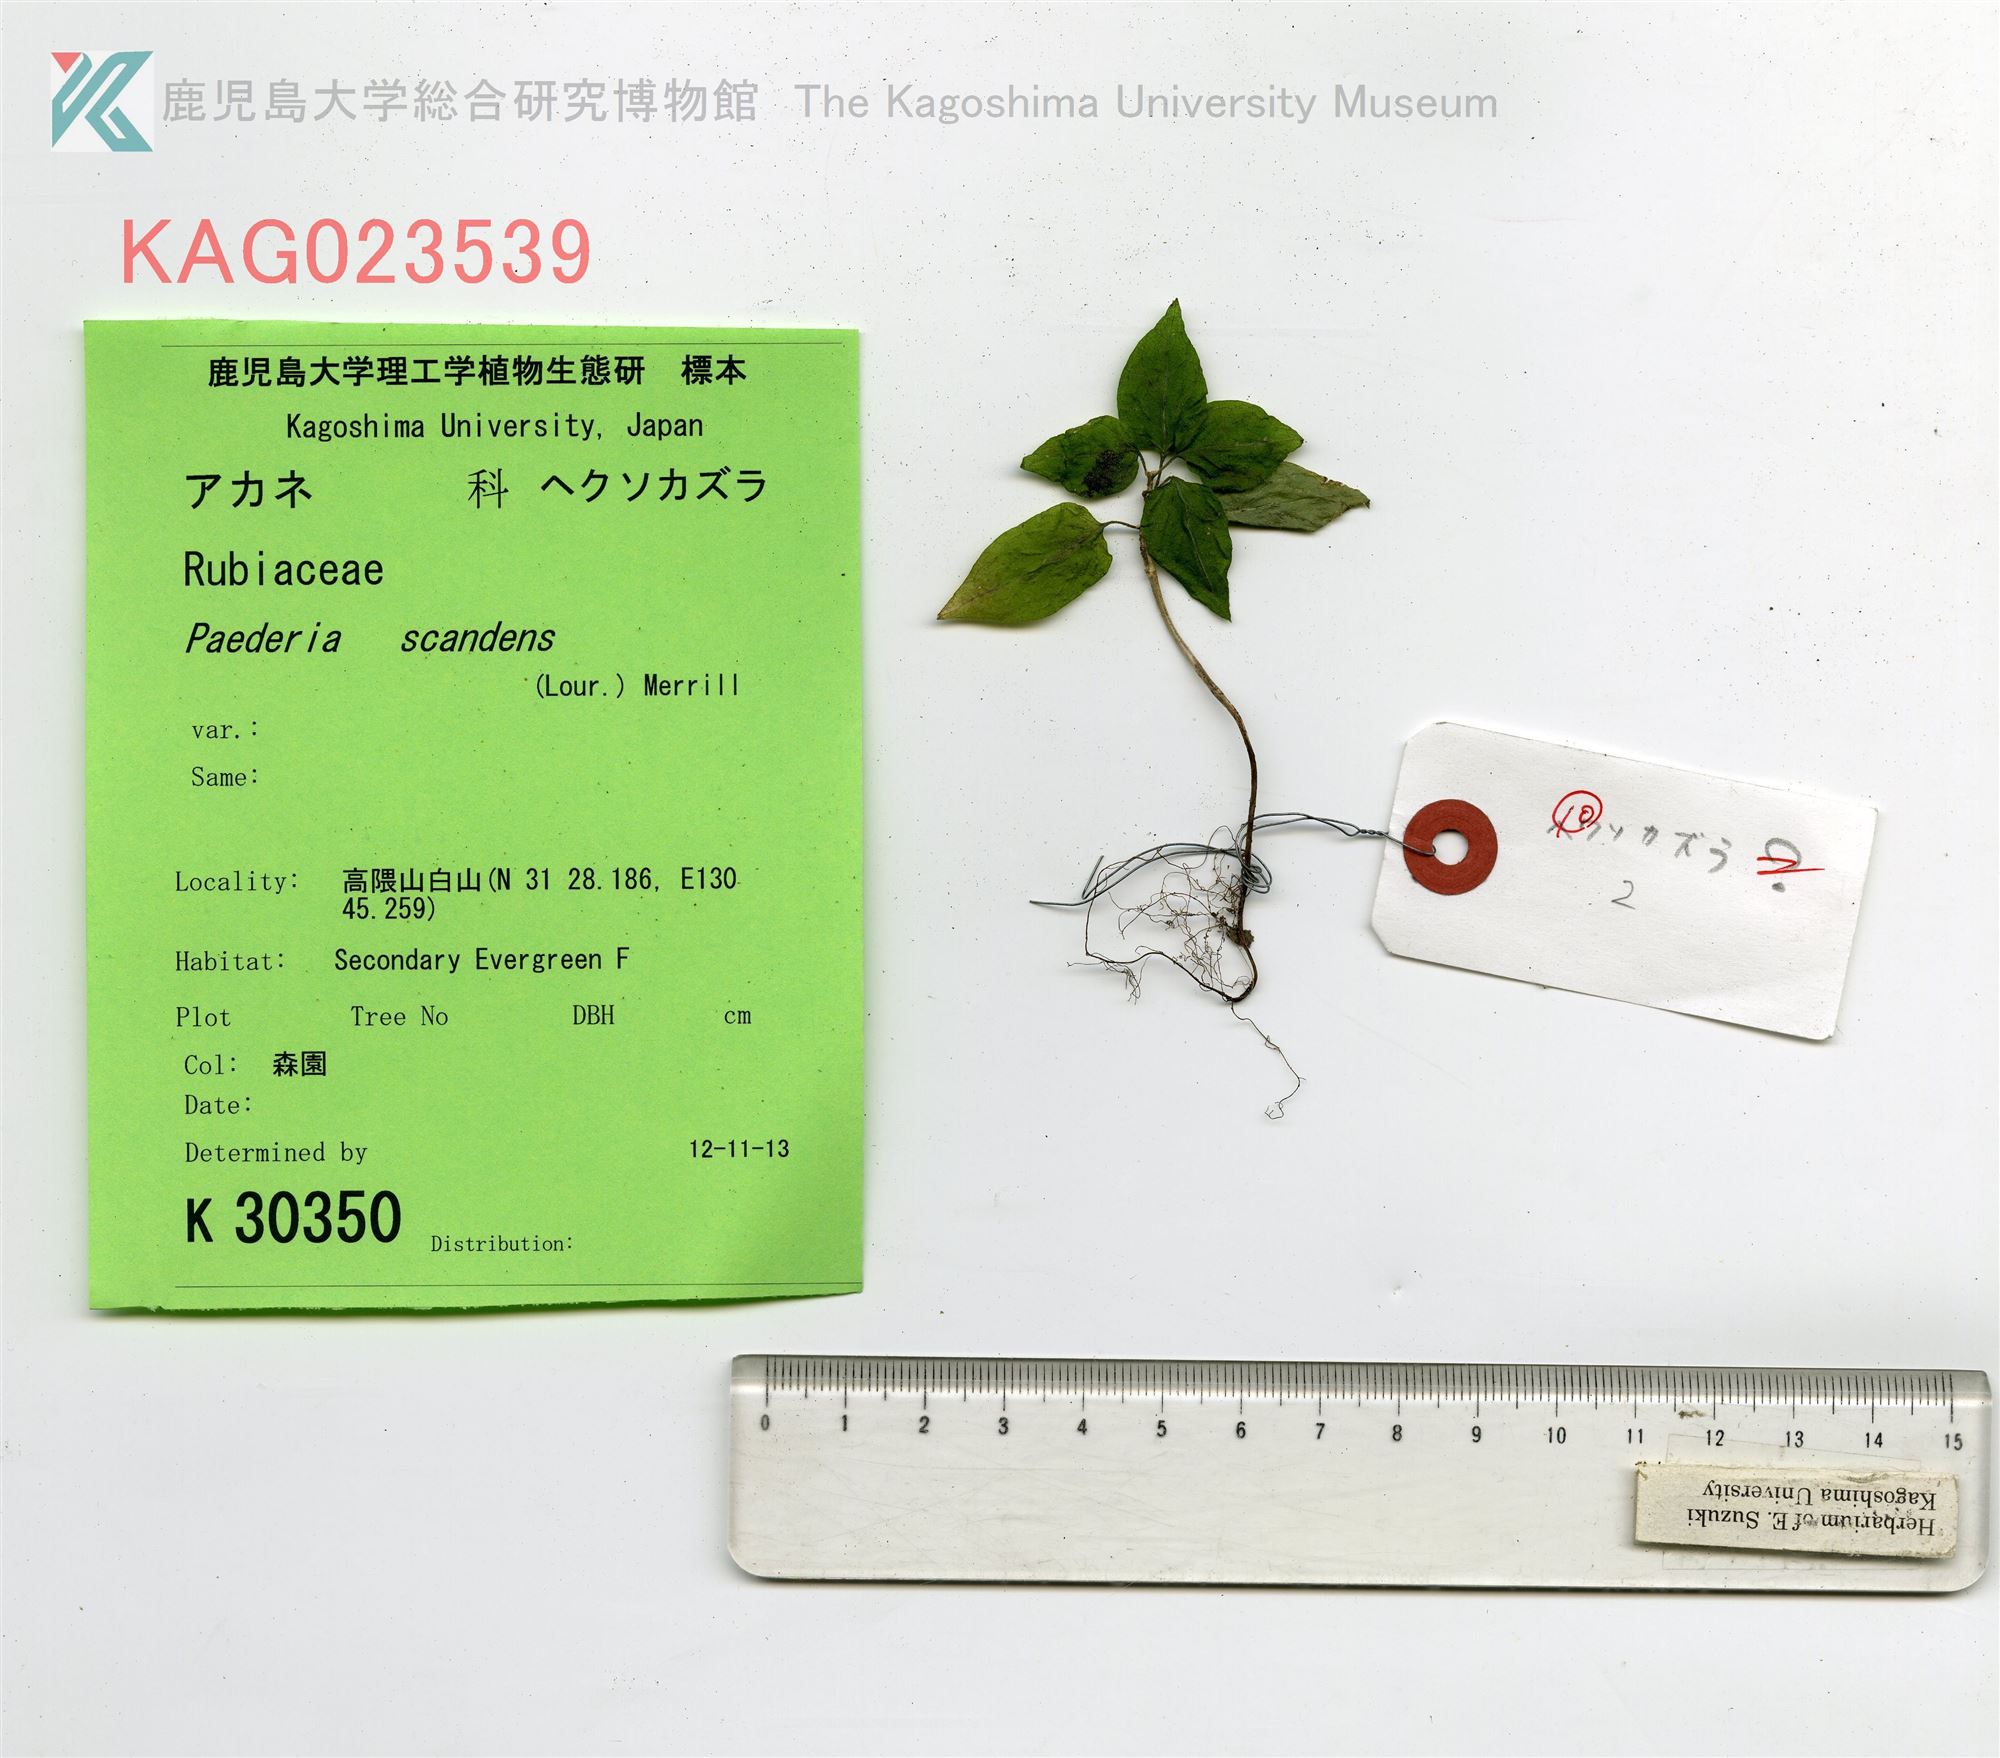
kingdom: Plantae
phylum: Tracheophyta
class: Magnoliopsida
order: Gentianales
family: Rubiaceae
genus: Paederia
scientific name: Paederia foetida
